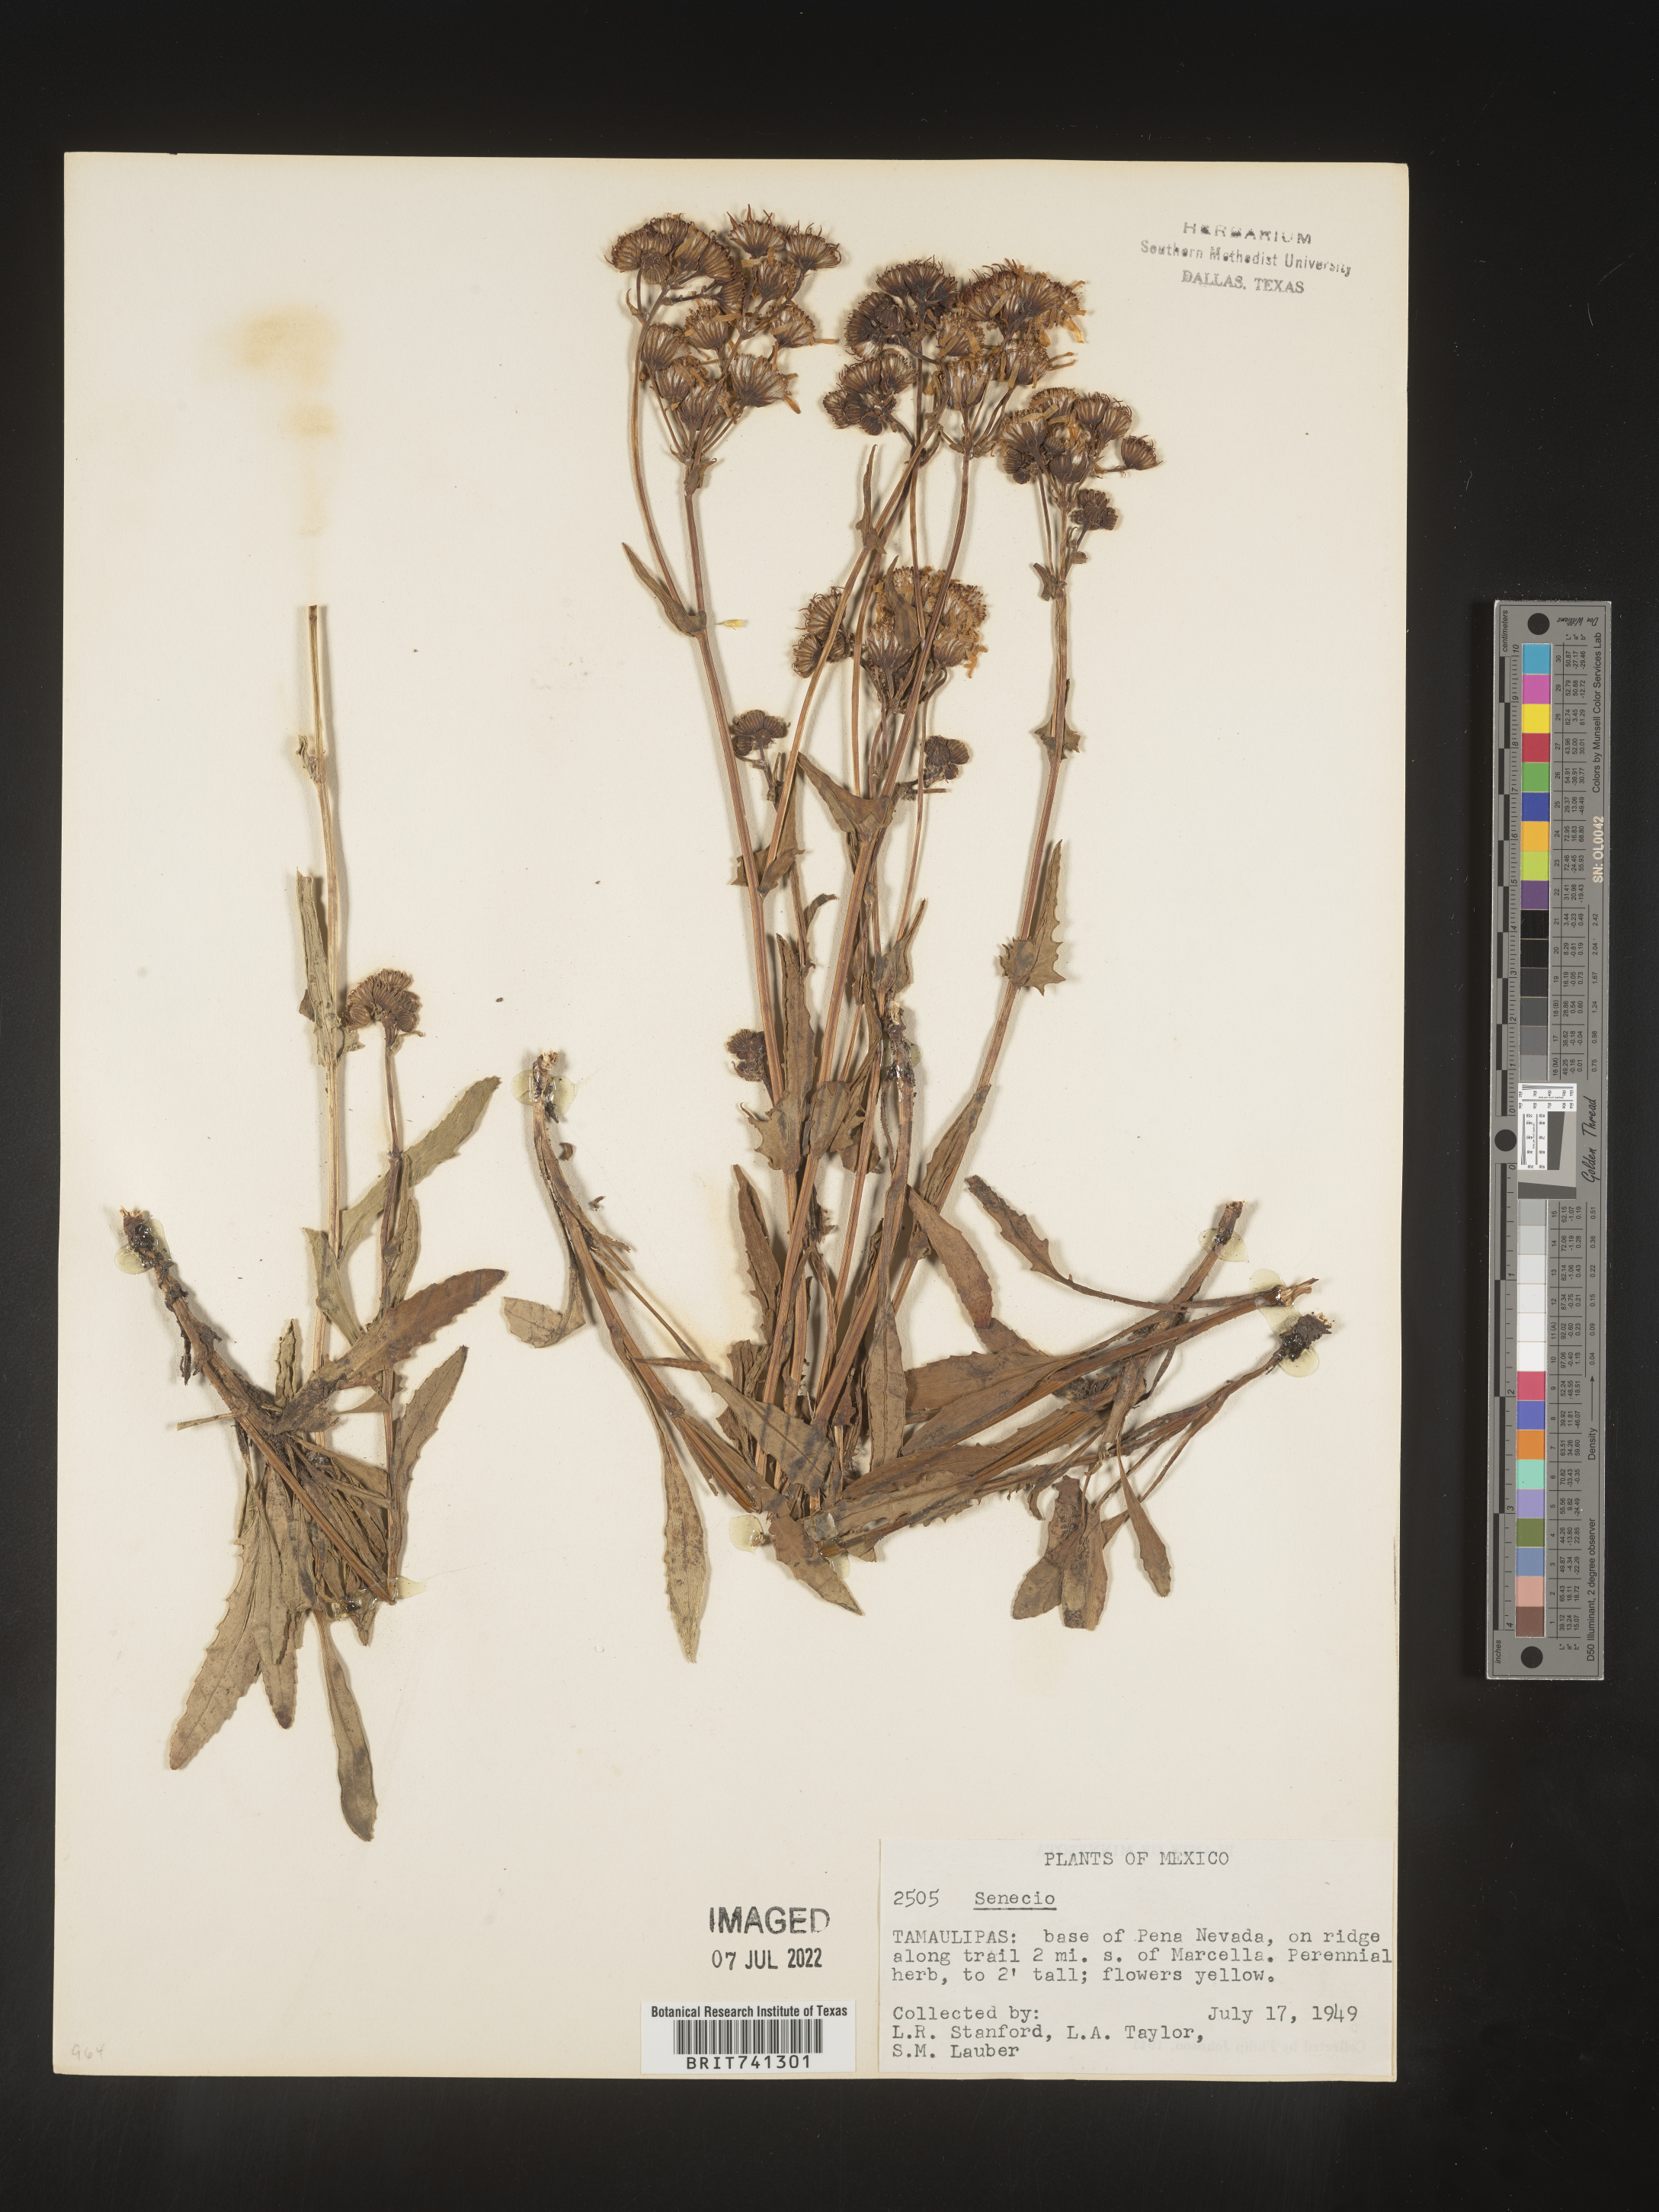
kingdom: Plantae
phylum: Tracheophyta
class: Magnoliopsida
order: Asterales
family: Asteraceae
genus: Senecio
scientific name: Senecio
